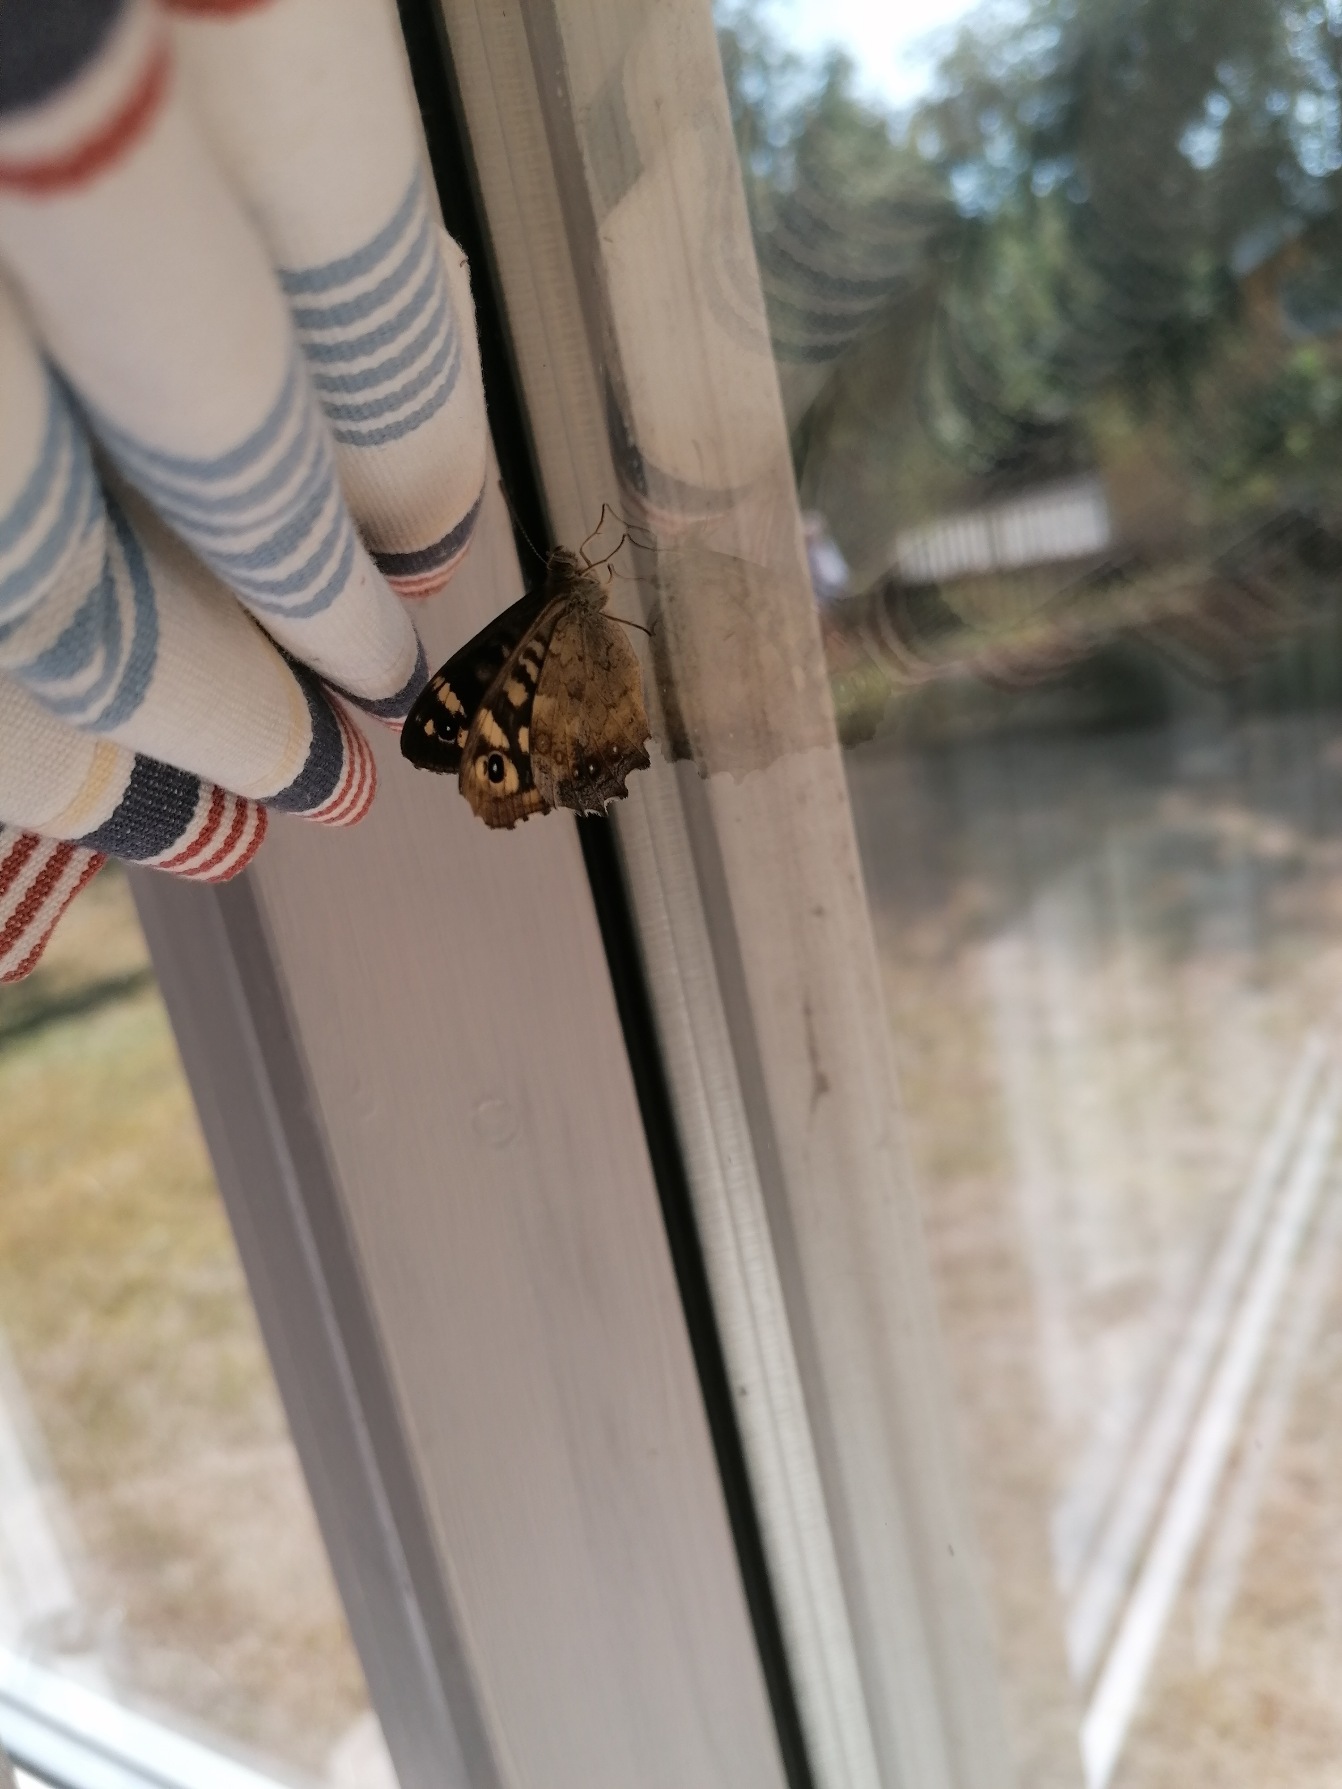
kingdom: Animalia
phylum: Arthropoda
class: Insecta
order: Lepidoptera
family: Nymphalidae
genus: Pararge
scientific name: Pararge aegeria
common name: Skovrandøje
